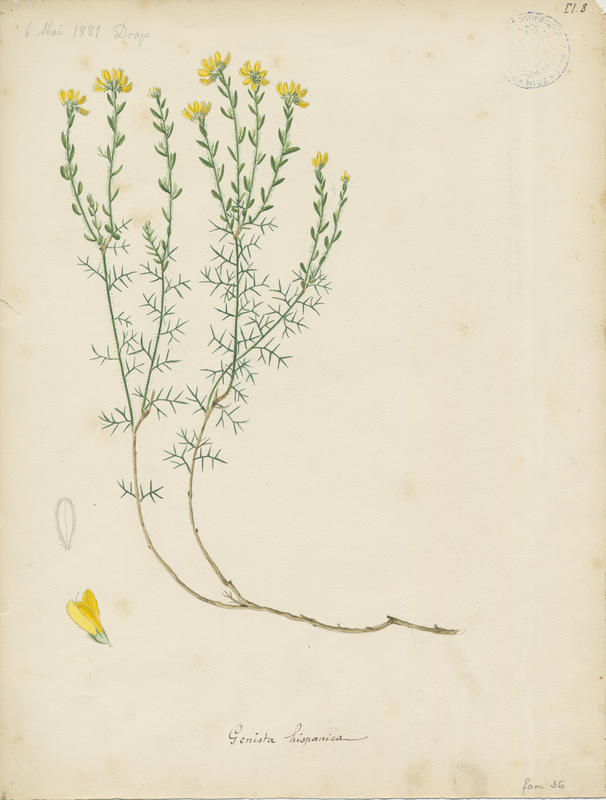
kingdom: Plantae
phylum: Tracheophyta
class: Magnoliopsida
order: Fabales
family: Fabaceae
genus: Genista
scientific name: Genista hispanica
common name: Spanish gorse
